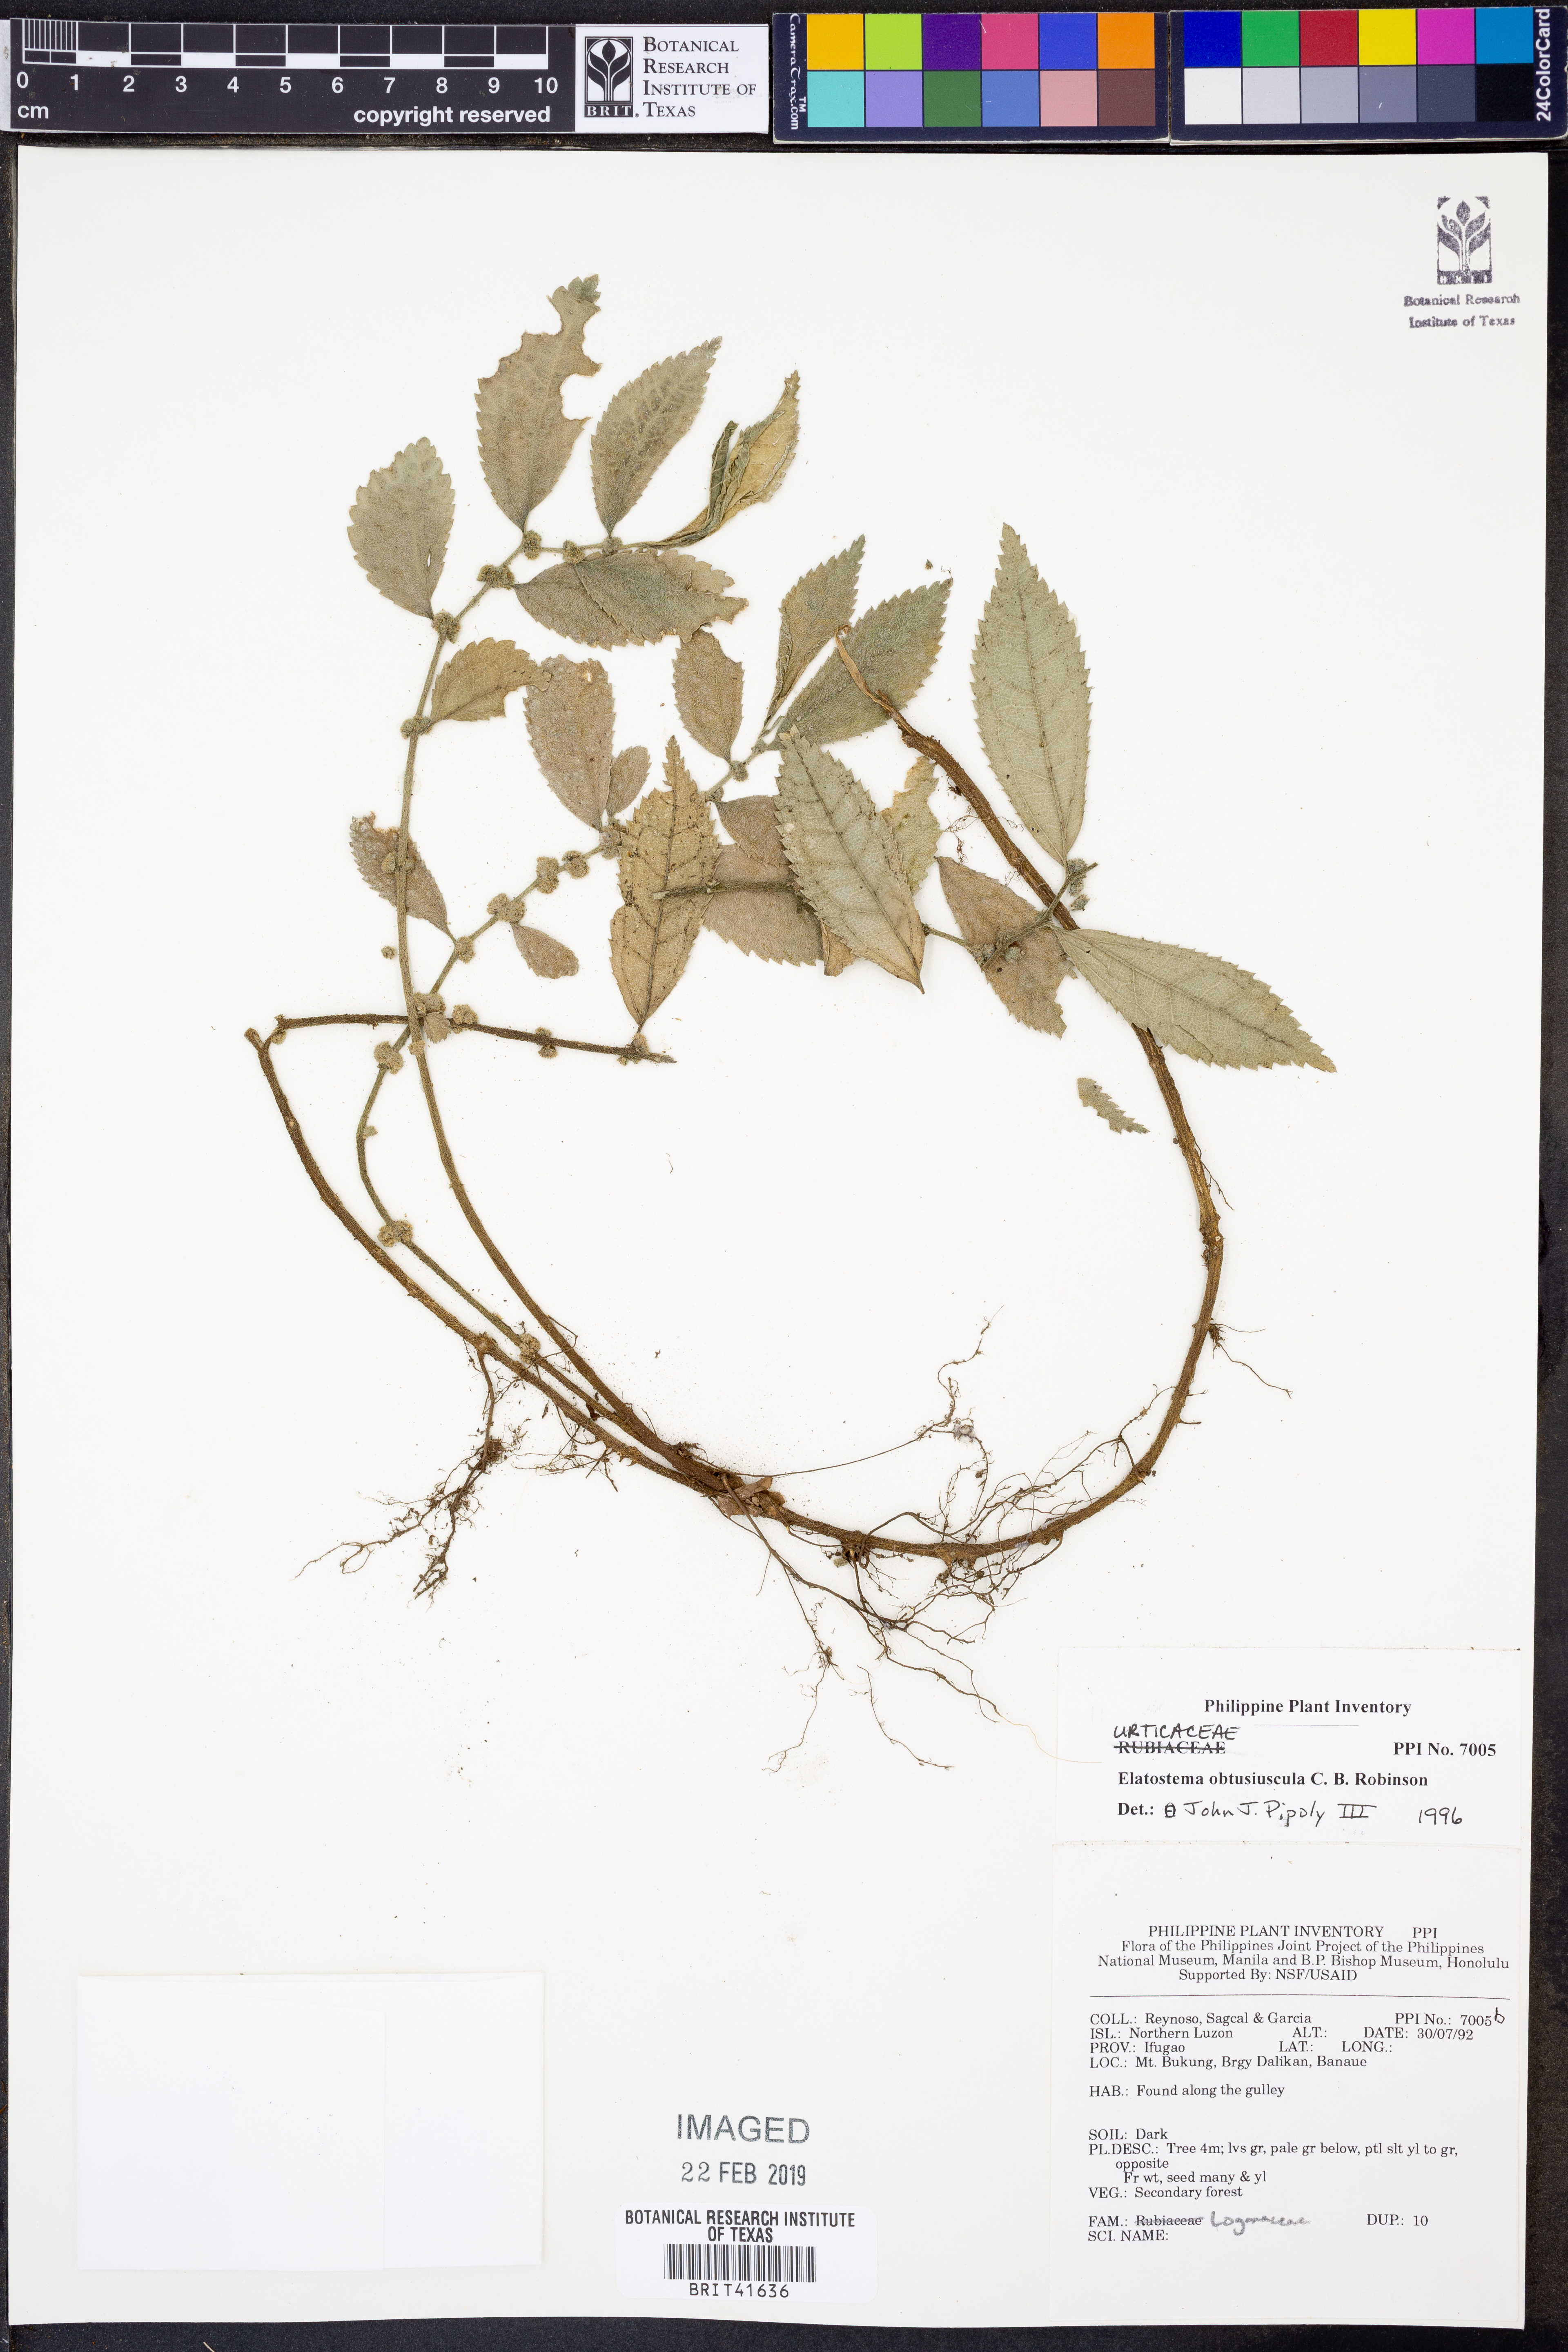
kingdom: Plantae
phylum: Tracheophyta
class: Magnoliopsida
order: Rosales
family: Urticaceae
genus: Elatostema
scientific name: Elatostema obtusiusculum
